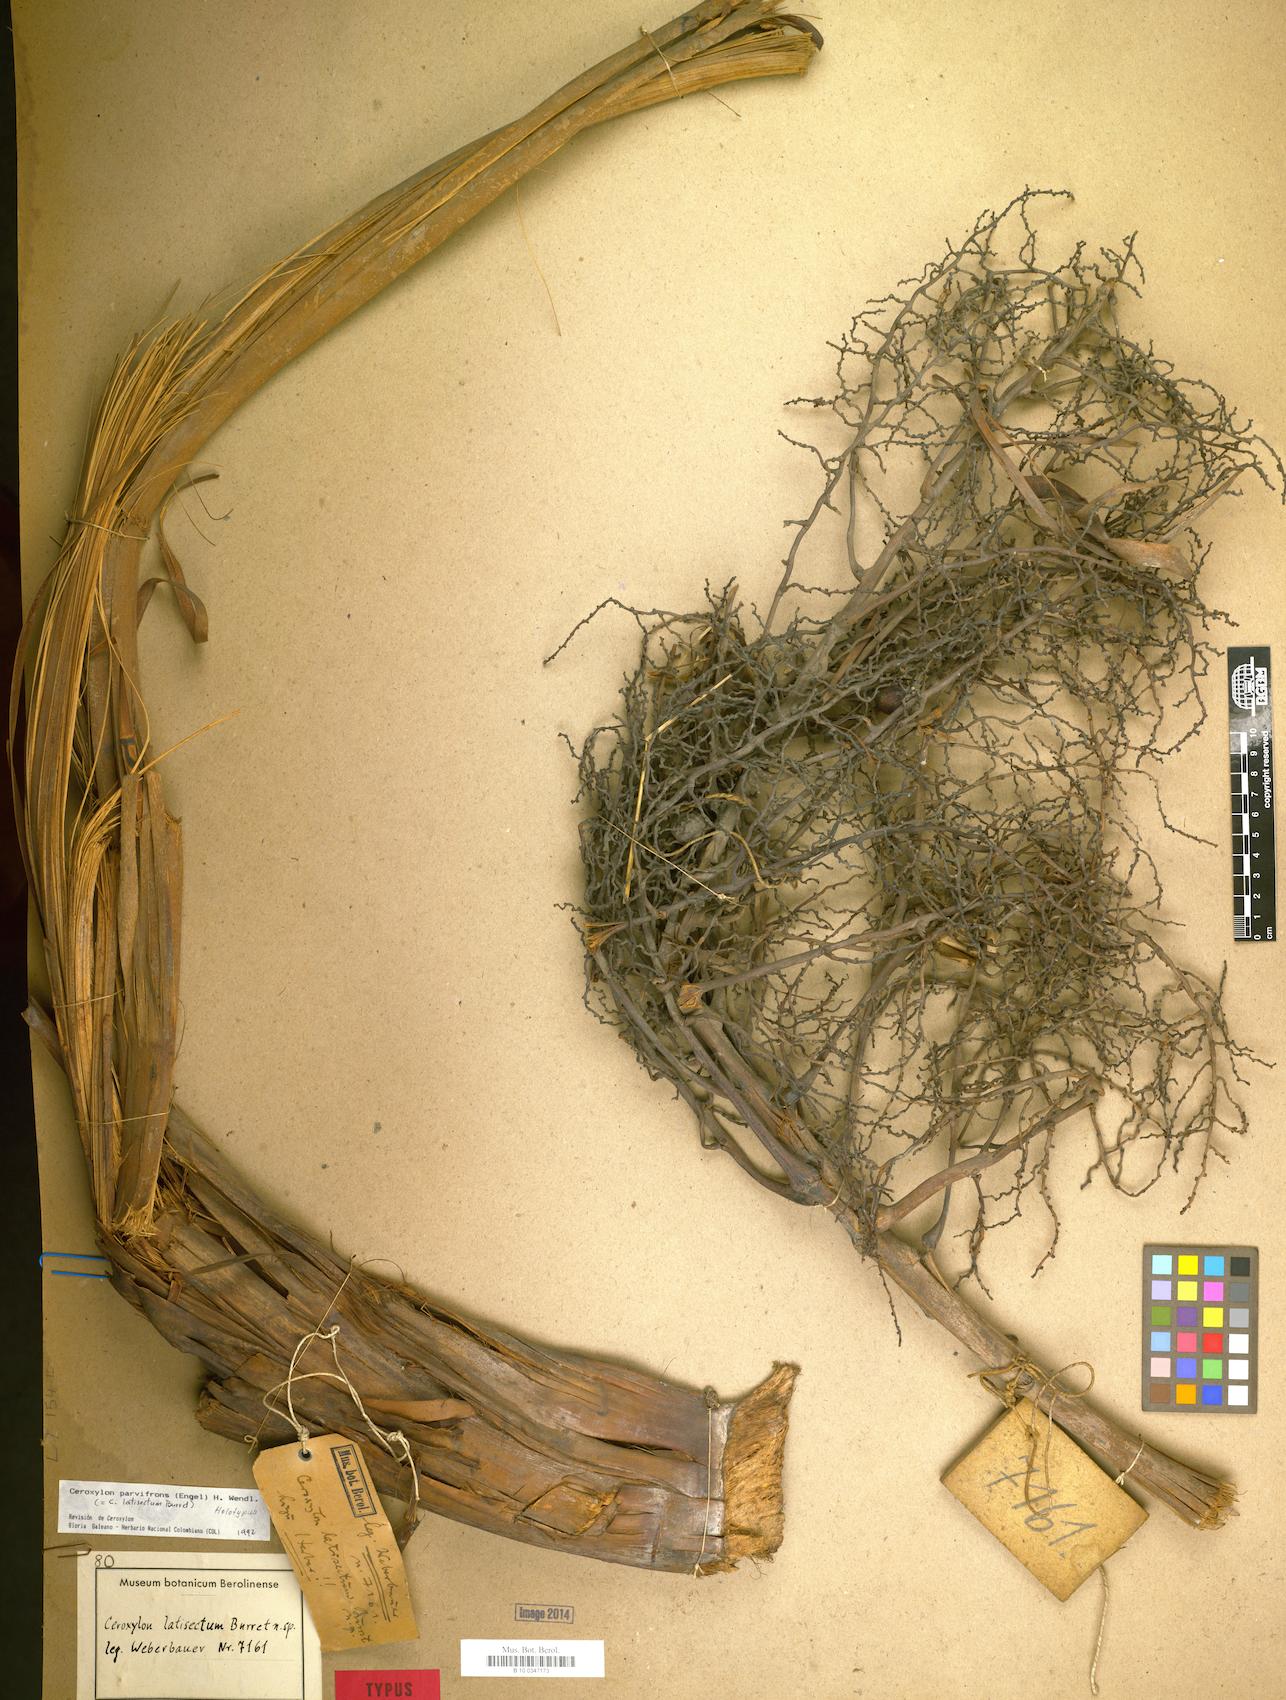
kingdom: Plantae
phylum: Tracheophyta
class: Liliopsida
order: Arecales
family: Arecaceae
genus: Ceroxylon
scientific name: Ceroxylon parvifrons
